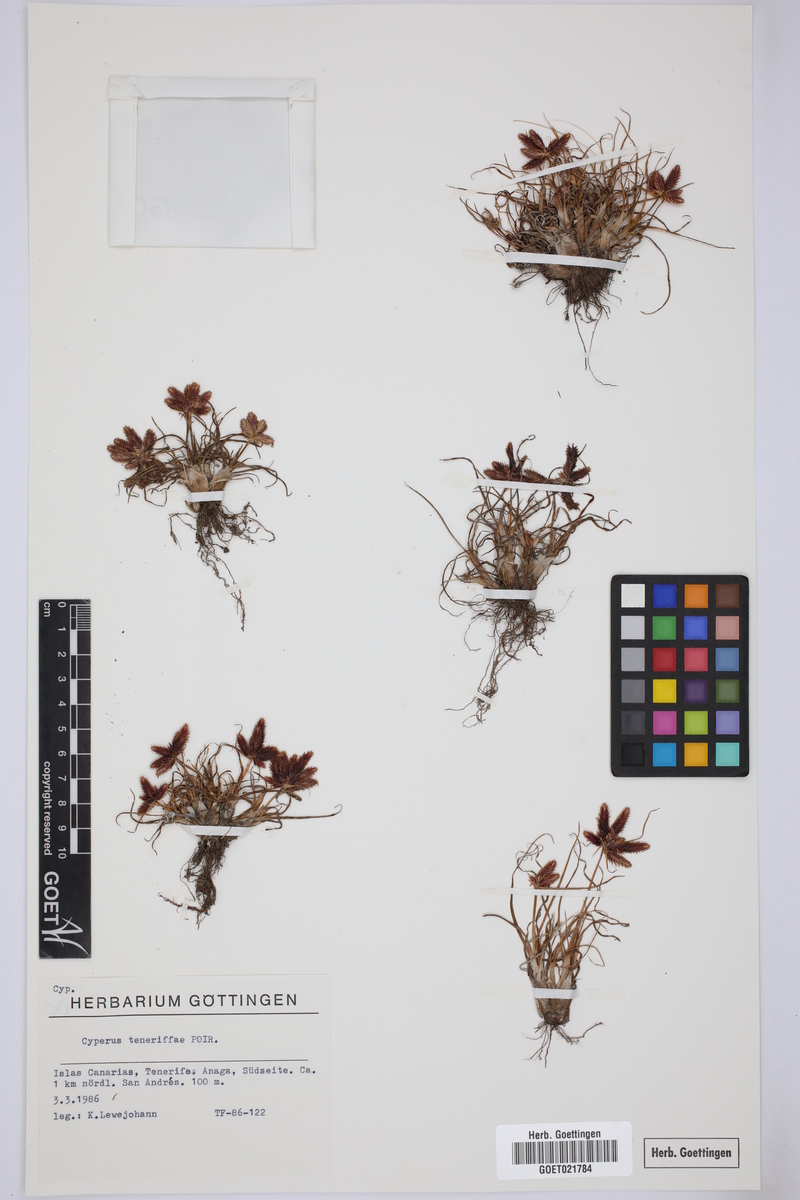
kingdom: Plantae
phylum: Tracheophyta
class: Liliopsida
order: Poales
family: Cyperaceae
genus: Cyperus
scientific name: Cyperus rubicundus
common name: Coco-grass
